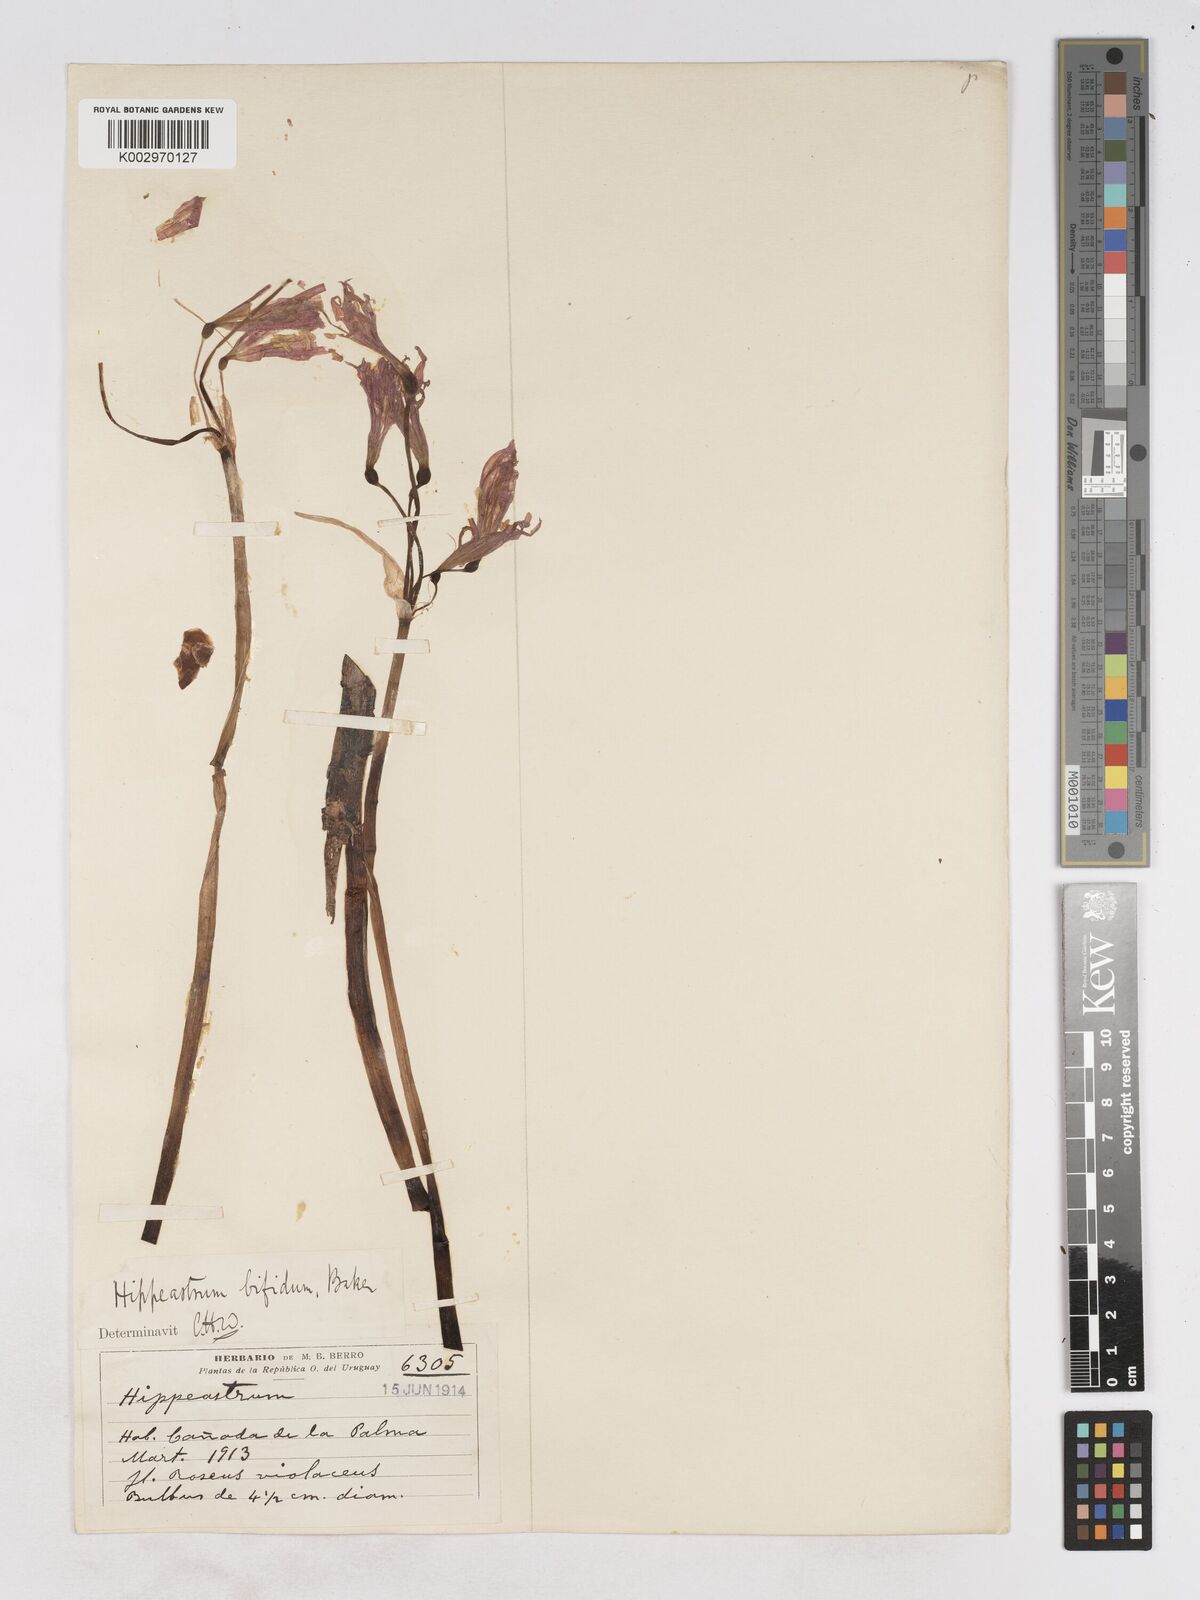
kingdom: Plantae
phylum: Tracheophyta
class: Liliopsida
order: Asparagales
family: Amaryllidaceae
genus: Zephyranthes
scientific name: Zephyranthes bifida
